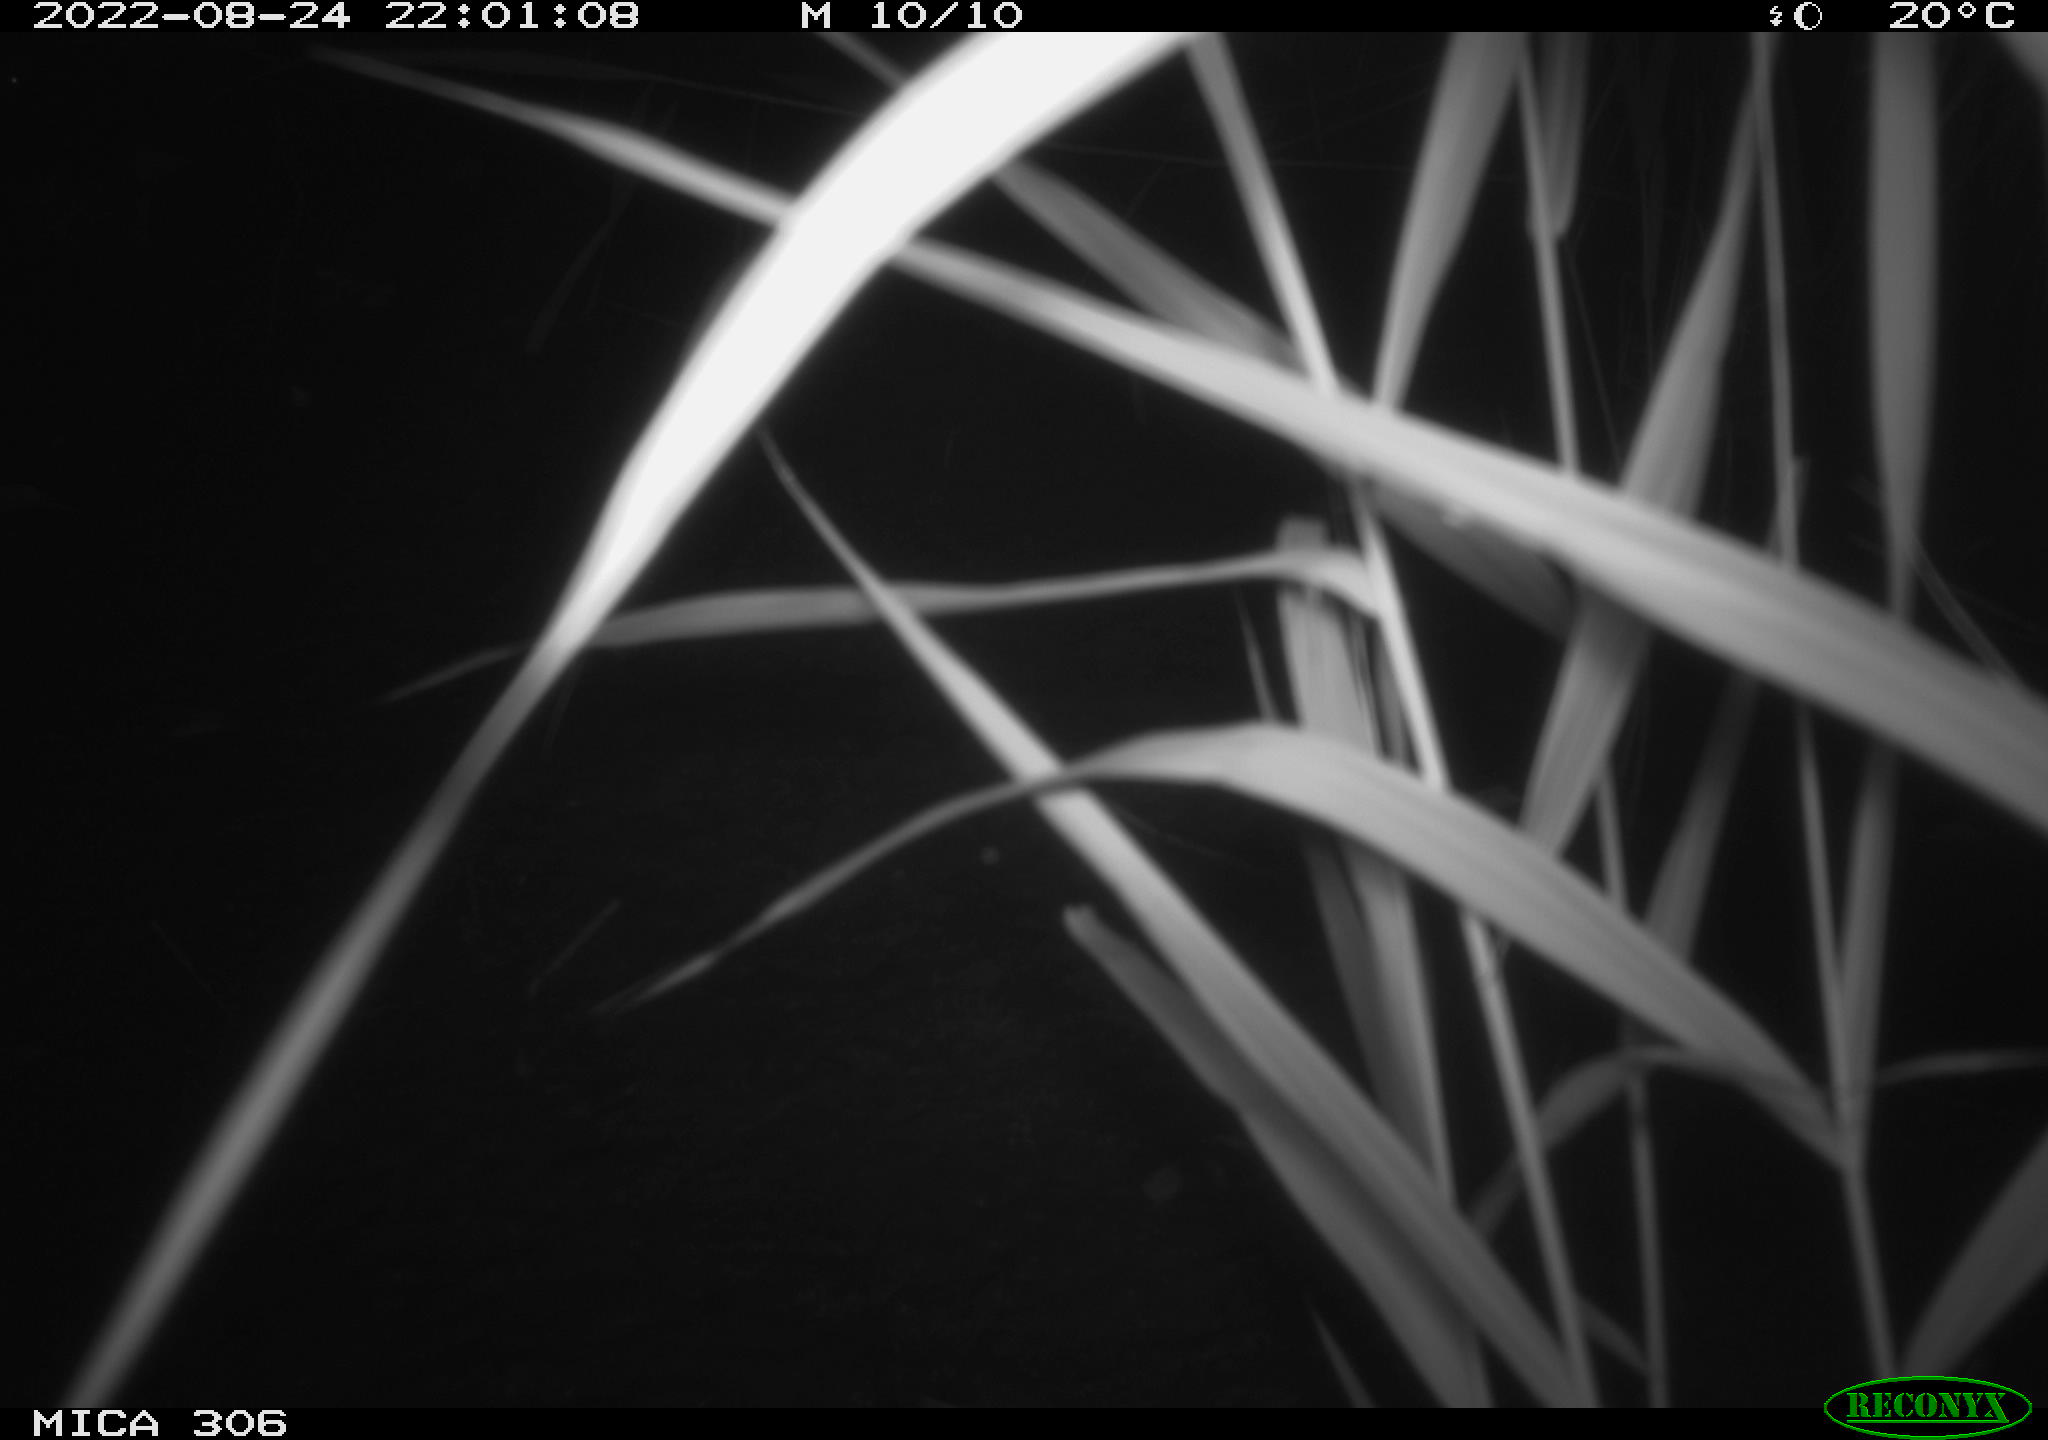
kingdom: Animalia
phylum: Chordata
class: Mammalia
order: Rodentia
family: Muridae
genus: Rattus
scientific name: Rattus norvegicus
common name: Brown rat
